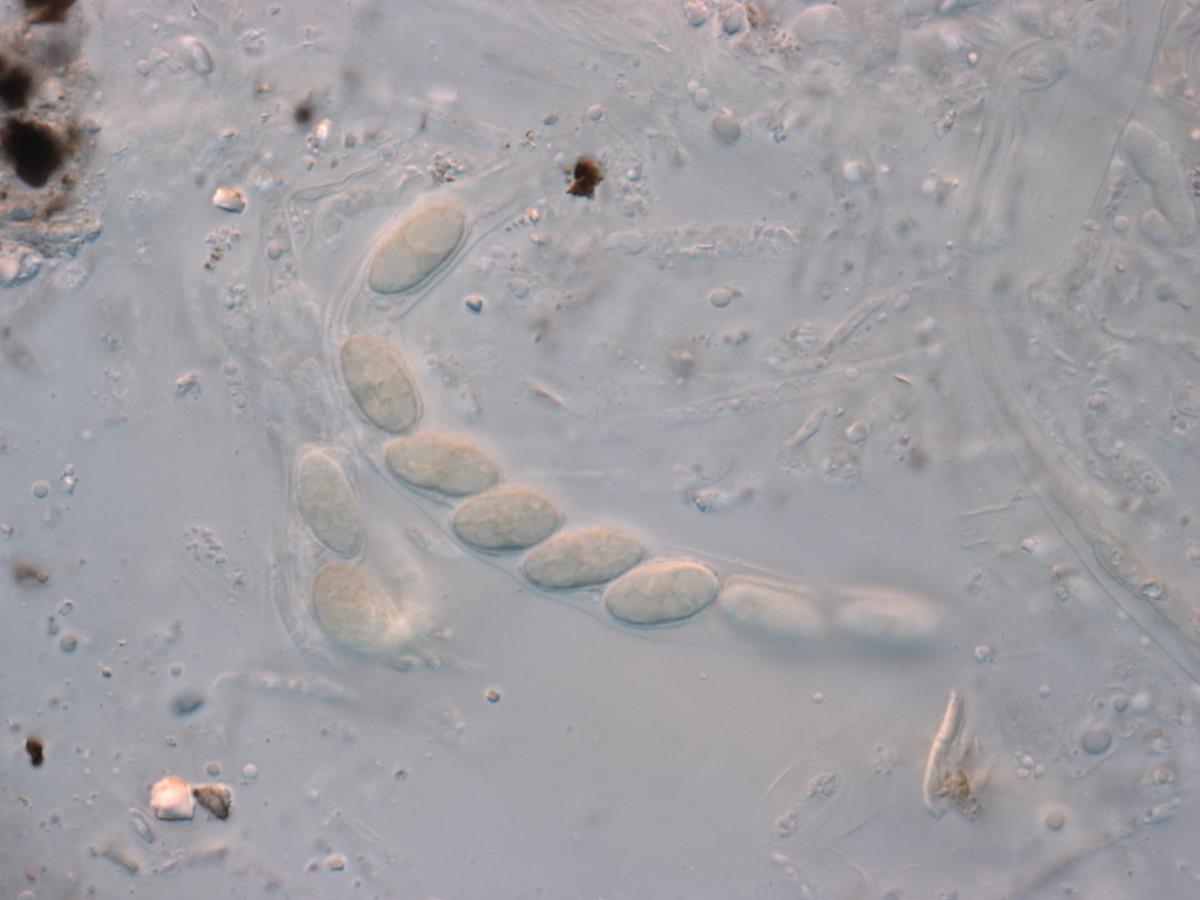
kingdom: Fungi
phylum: Ascomycota
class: Sordariomycetes
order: Phyllachorales
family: Phyllachoraceae
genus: Phyllachora
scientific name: Phyllachora alyxiae
